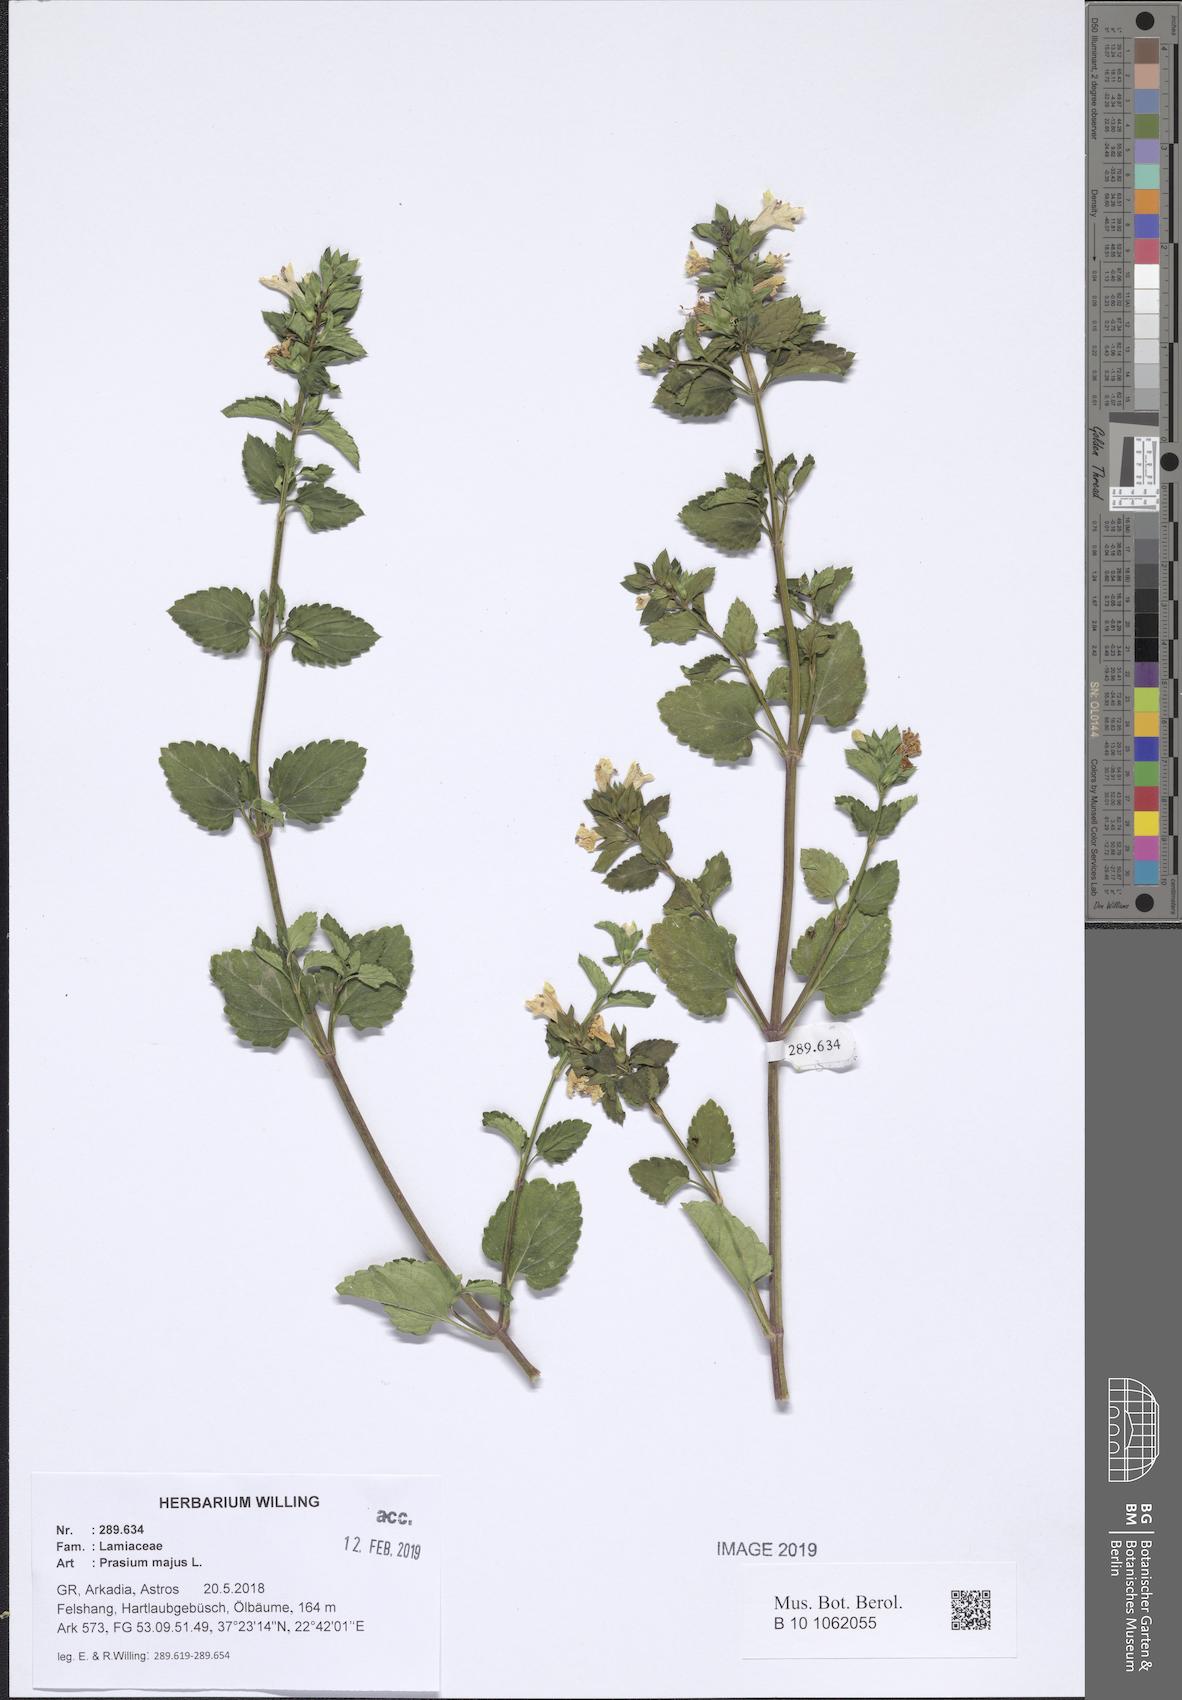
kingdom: Plantae
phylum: Tracheophyta
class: Magnoliopsida
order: Lamiales
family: Lamiaceae
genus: Prasium
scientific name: Prasium majus
